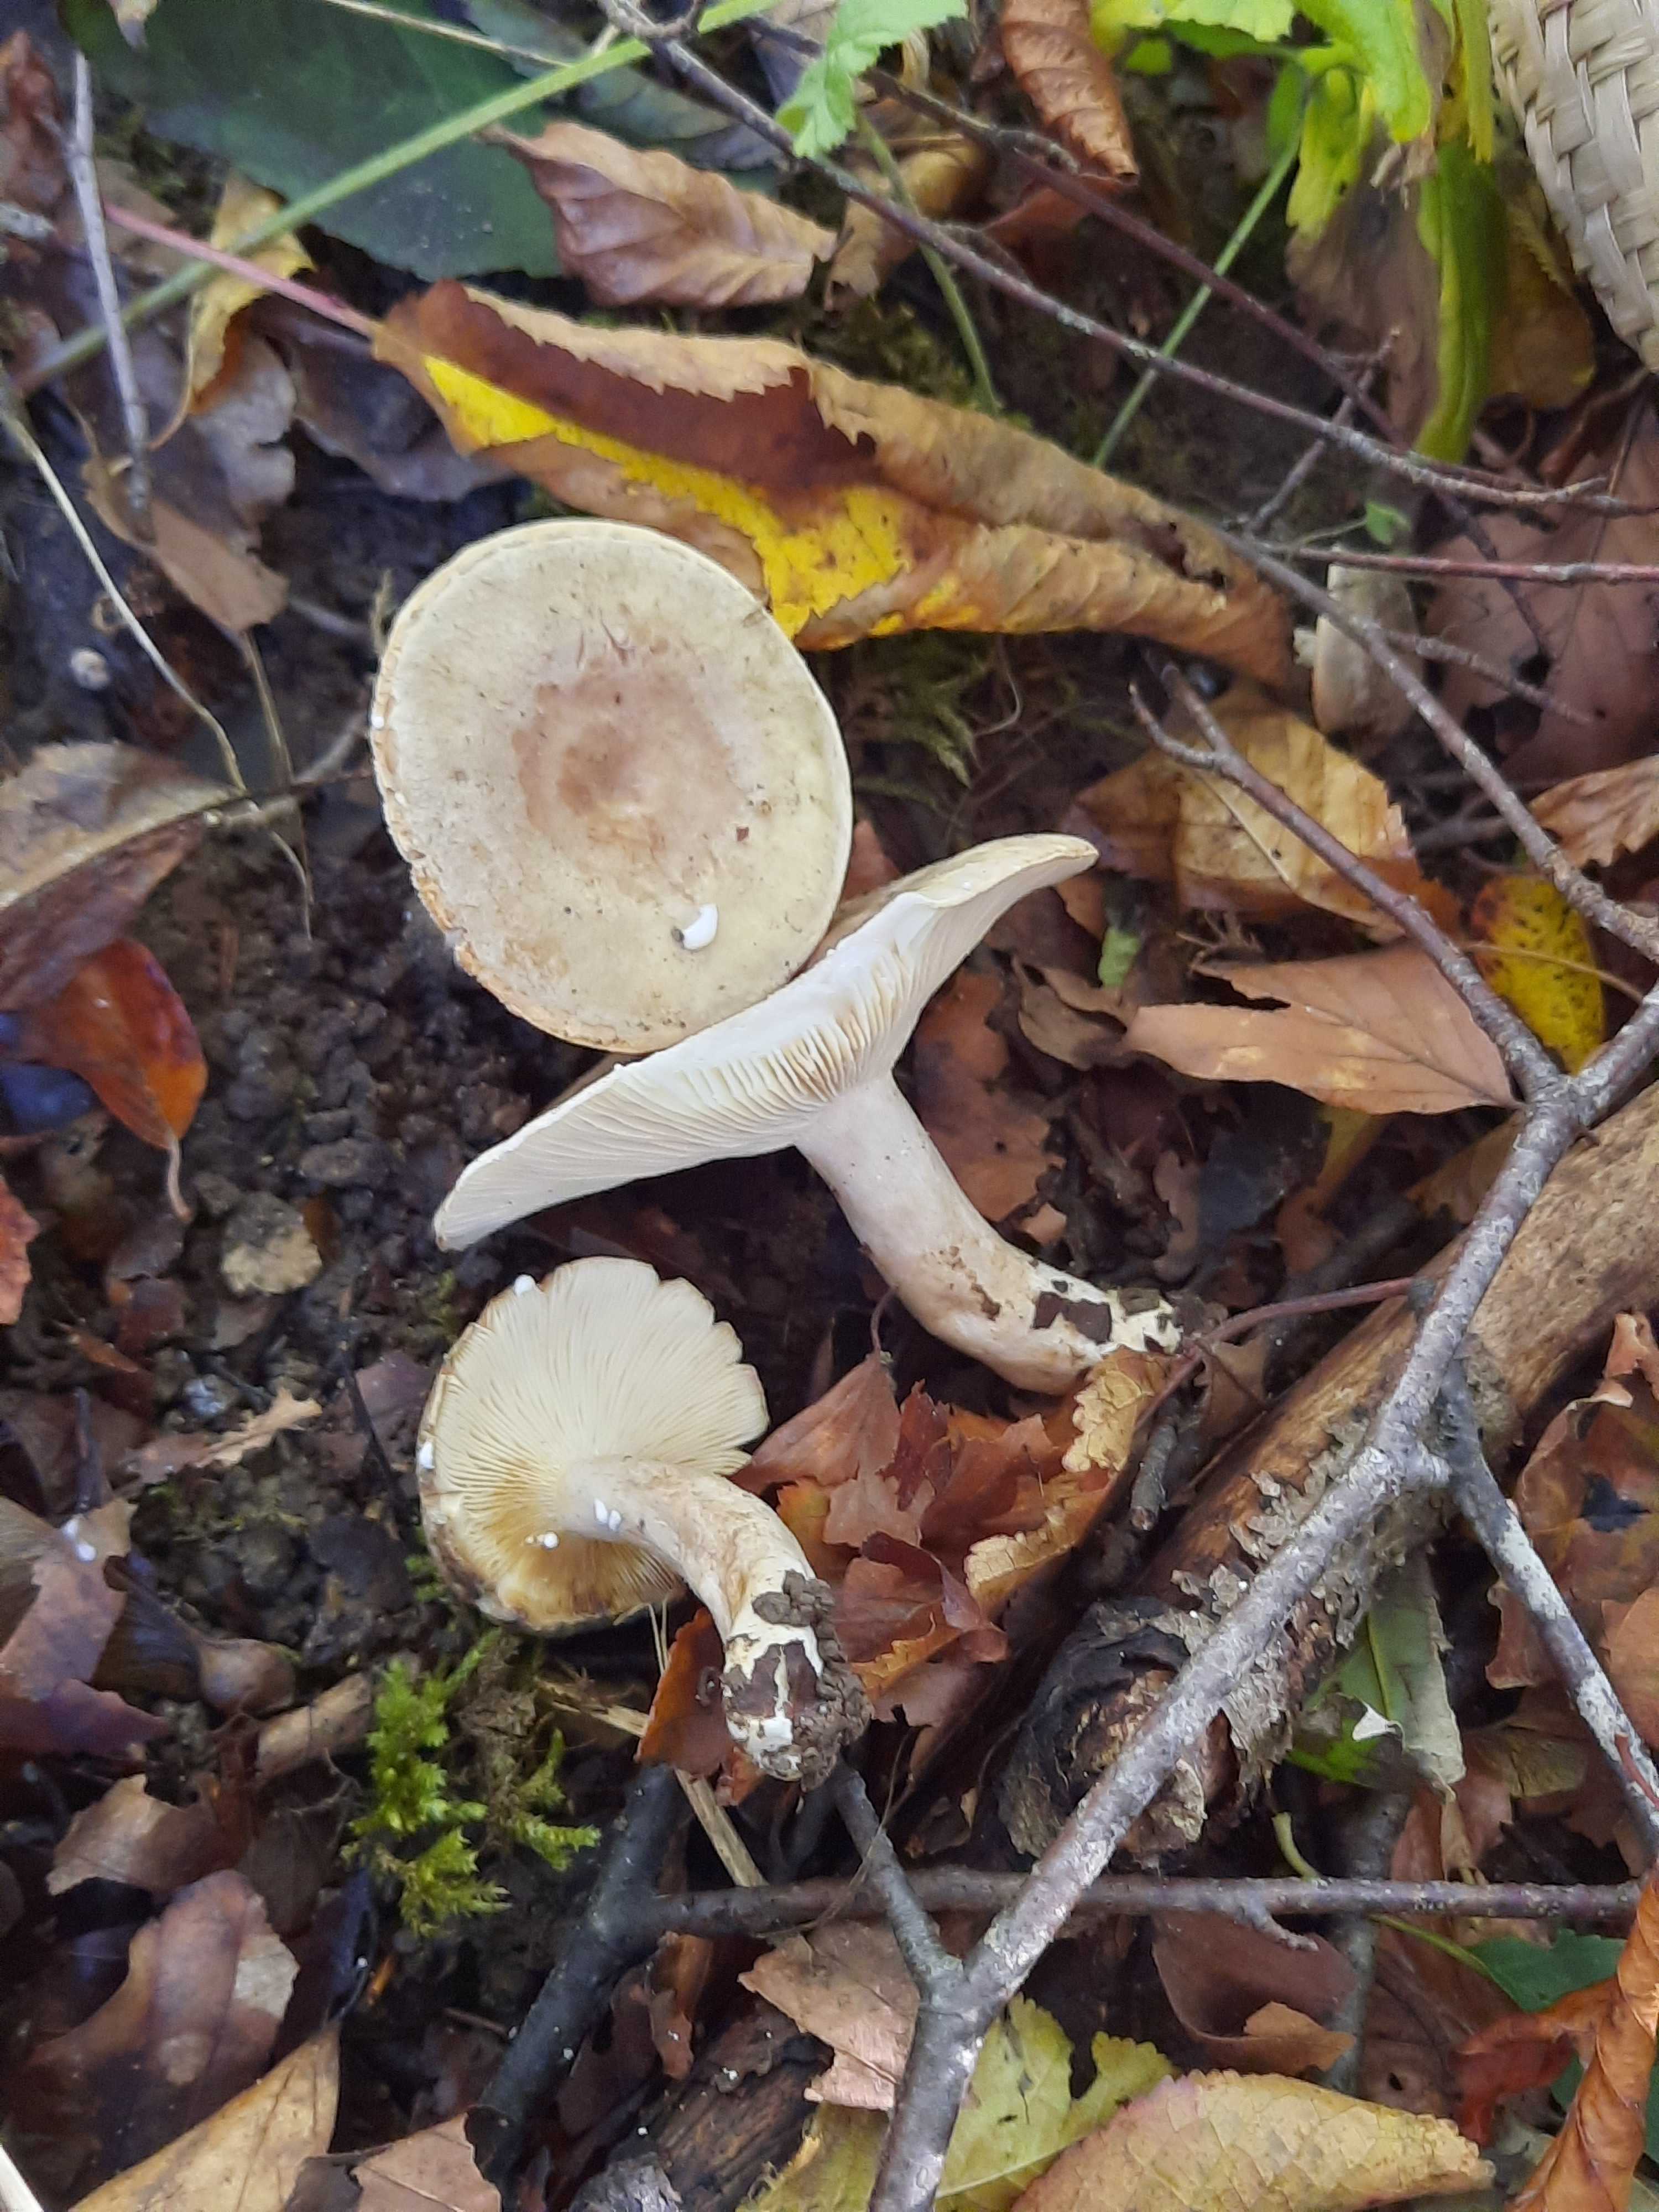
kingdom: Fungi
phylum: Basidiomycota
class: Agaricomycetes
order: Russulales
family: Russulaceae
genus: Lactarius
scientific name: Lactarius blennius
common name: dråbeplettet mælkehat
